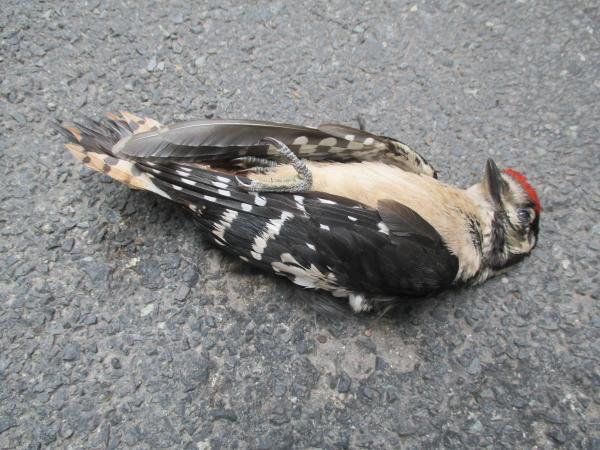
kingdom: Animalia
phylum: Chordata
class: Aves
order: Piciformes
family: Picidae
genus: Dendrocopos
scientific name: Dendrocopos major
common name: Great spotted woodpecker
